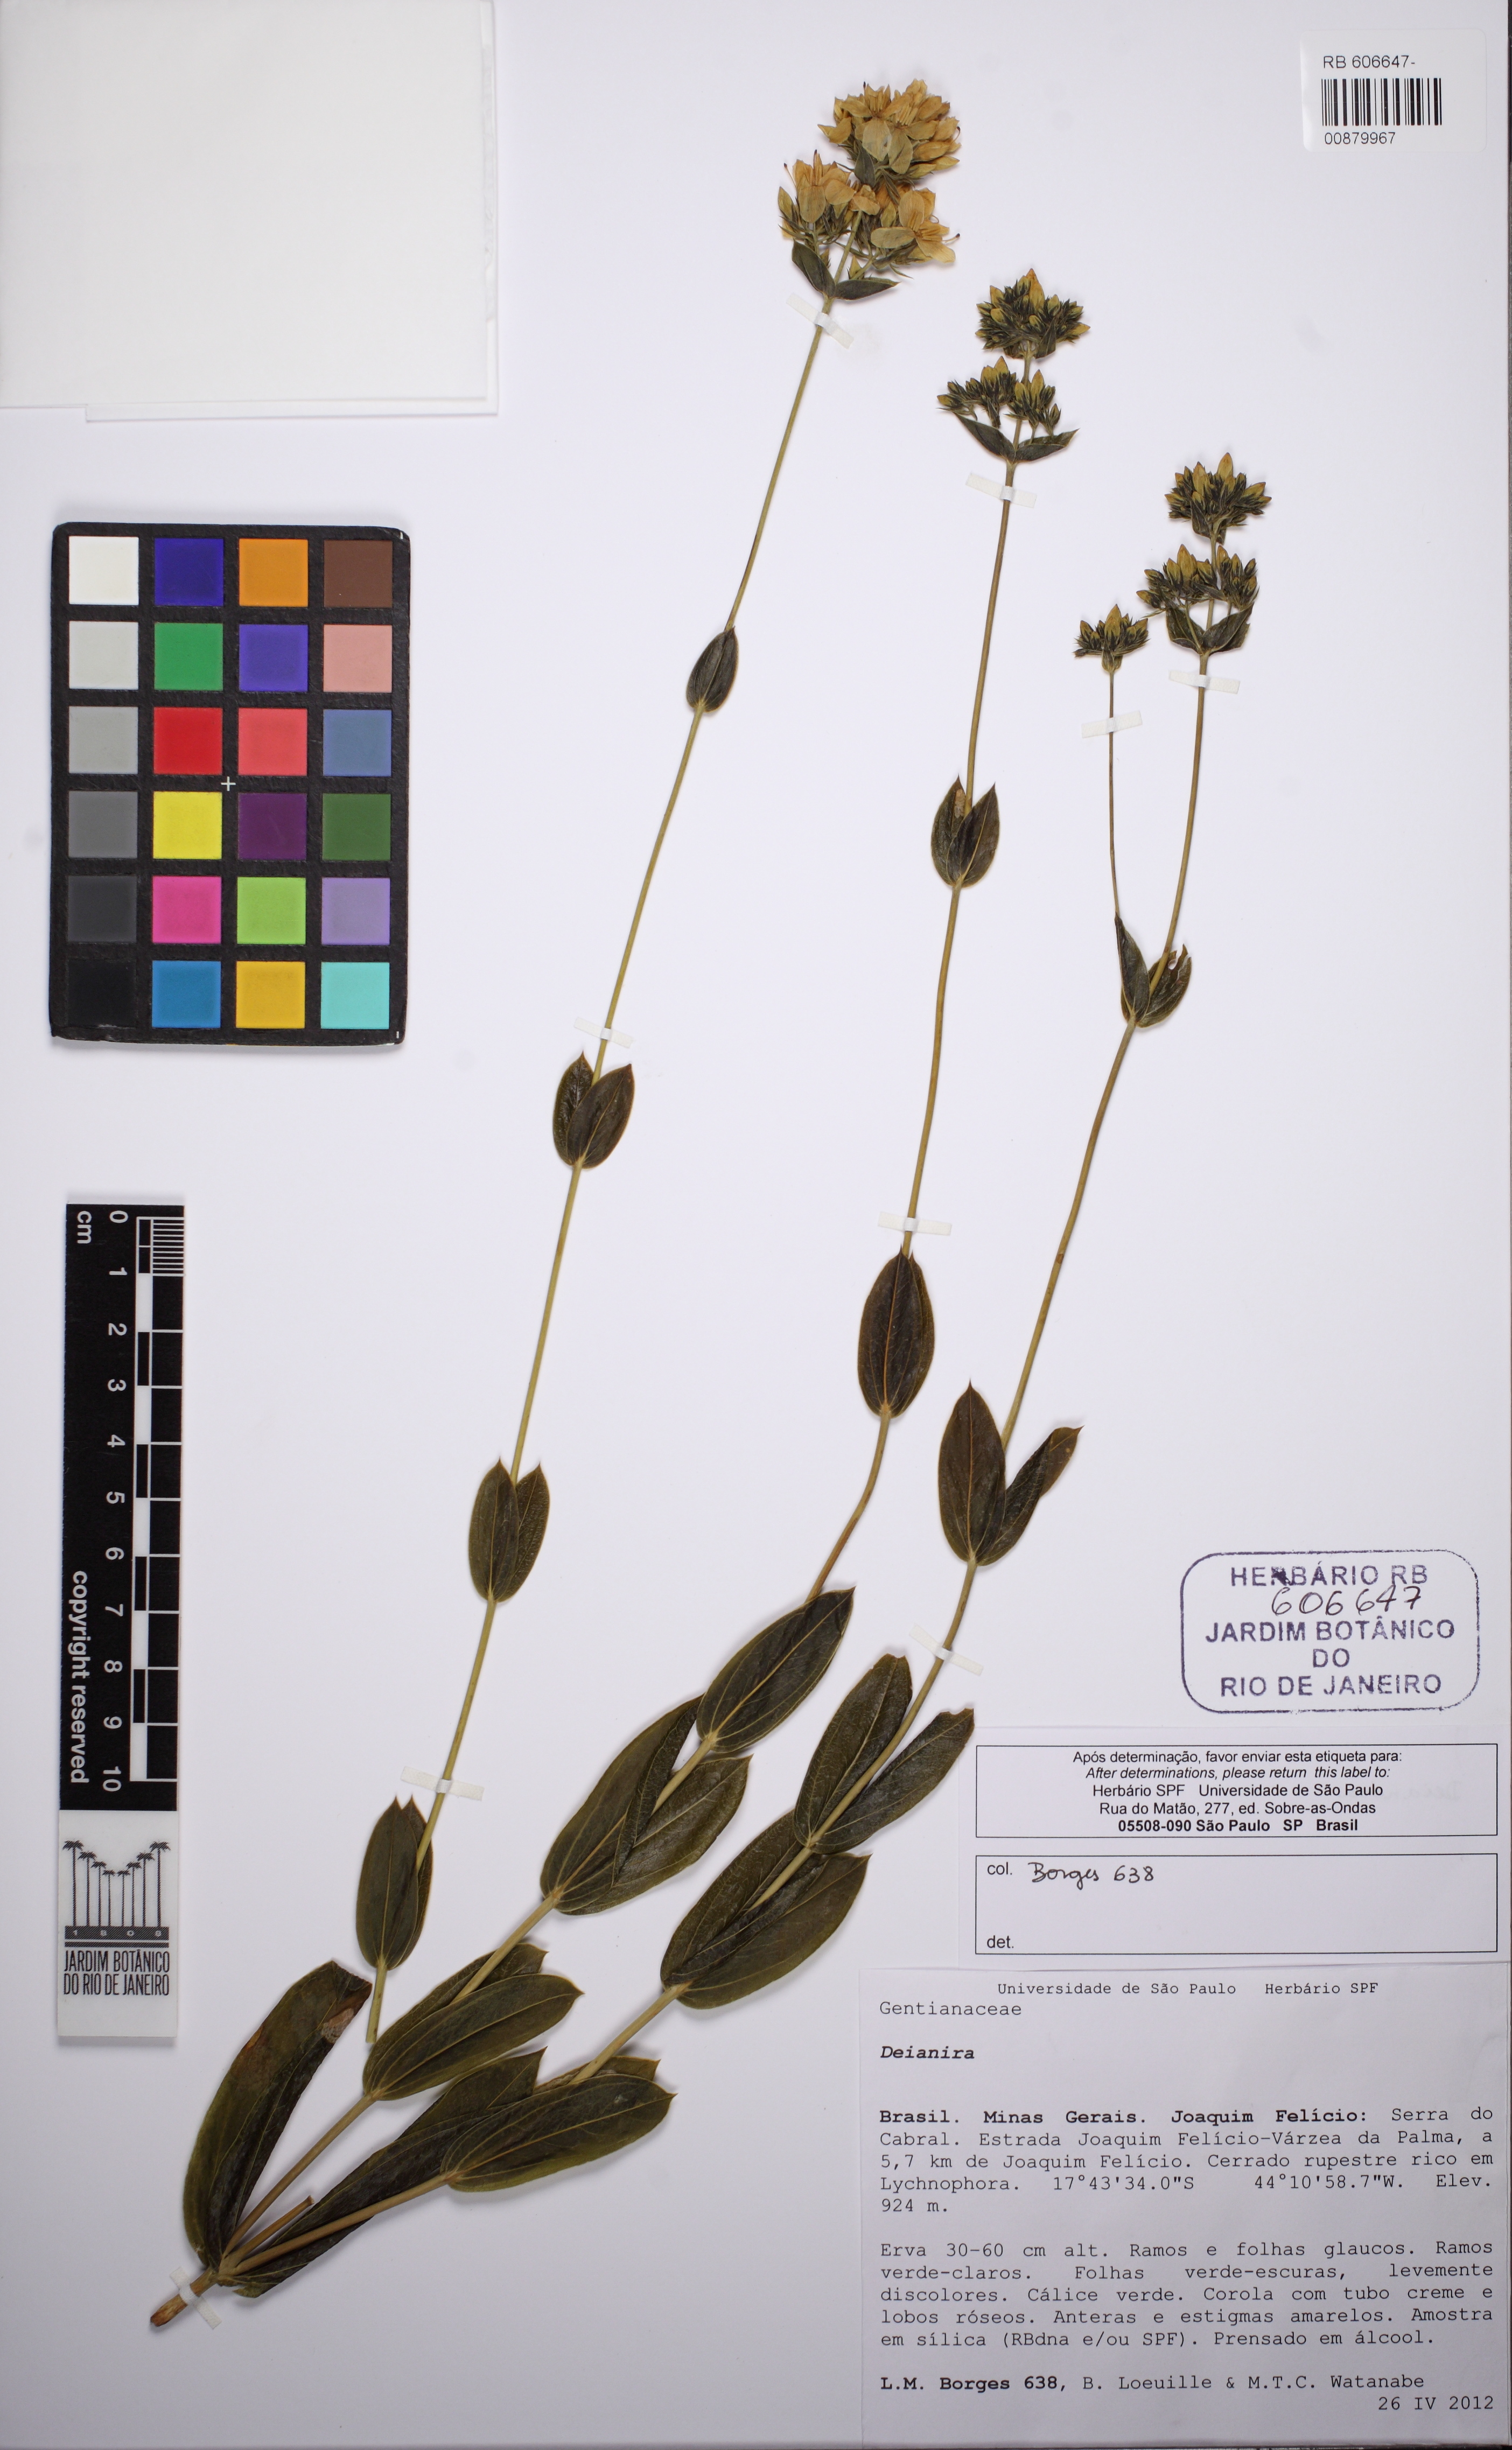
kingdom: Plantae
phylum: Tracheophyta
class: Magnoliopsida
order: Gentianales
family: Gentianaceae
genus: Deianira
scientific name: Deianira
